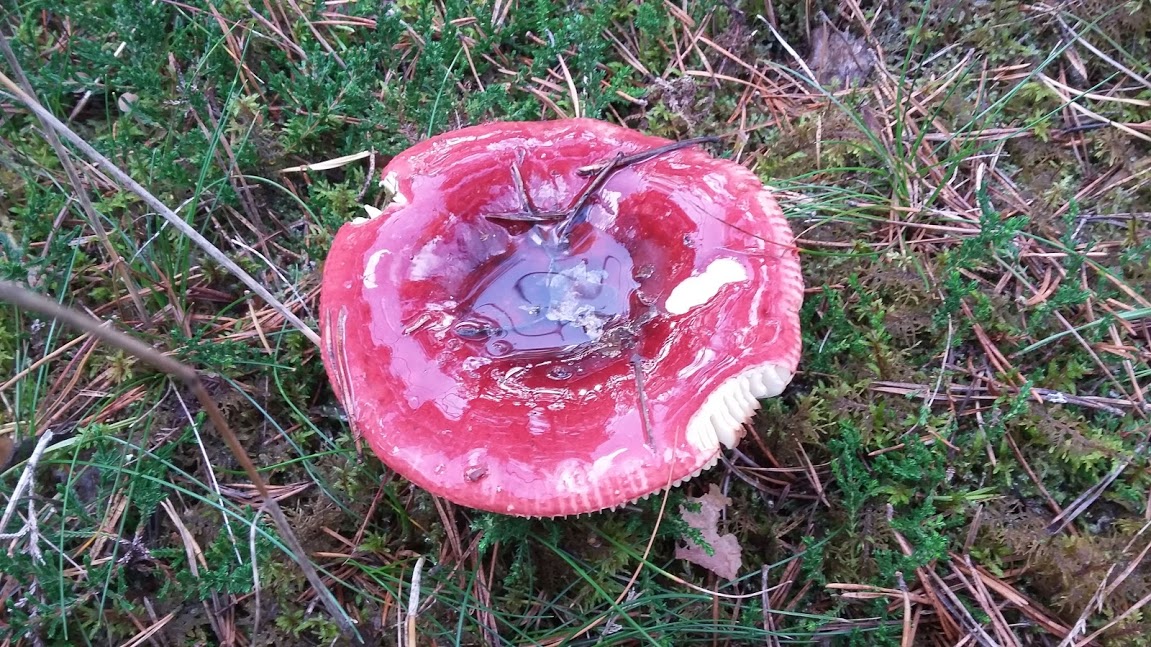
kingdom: Fungi
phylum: Basidiomycota
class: Agaricomycetes
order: Russulales
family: Russulaceae
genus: Russula
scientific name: Russula xerampelina
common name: hummer-skørhat
